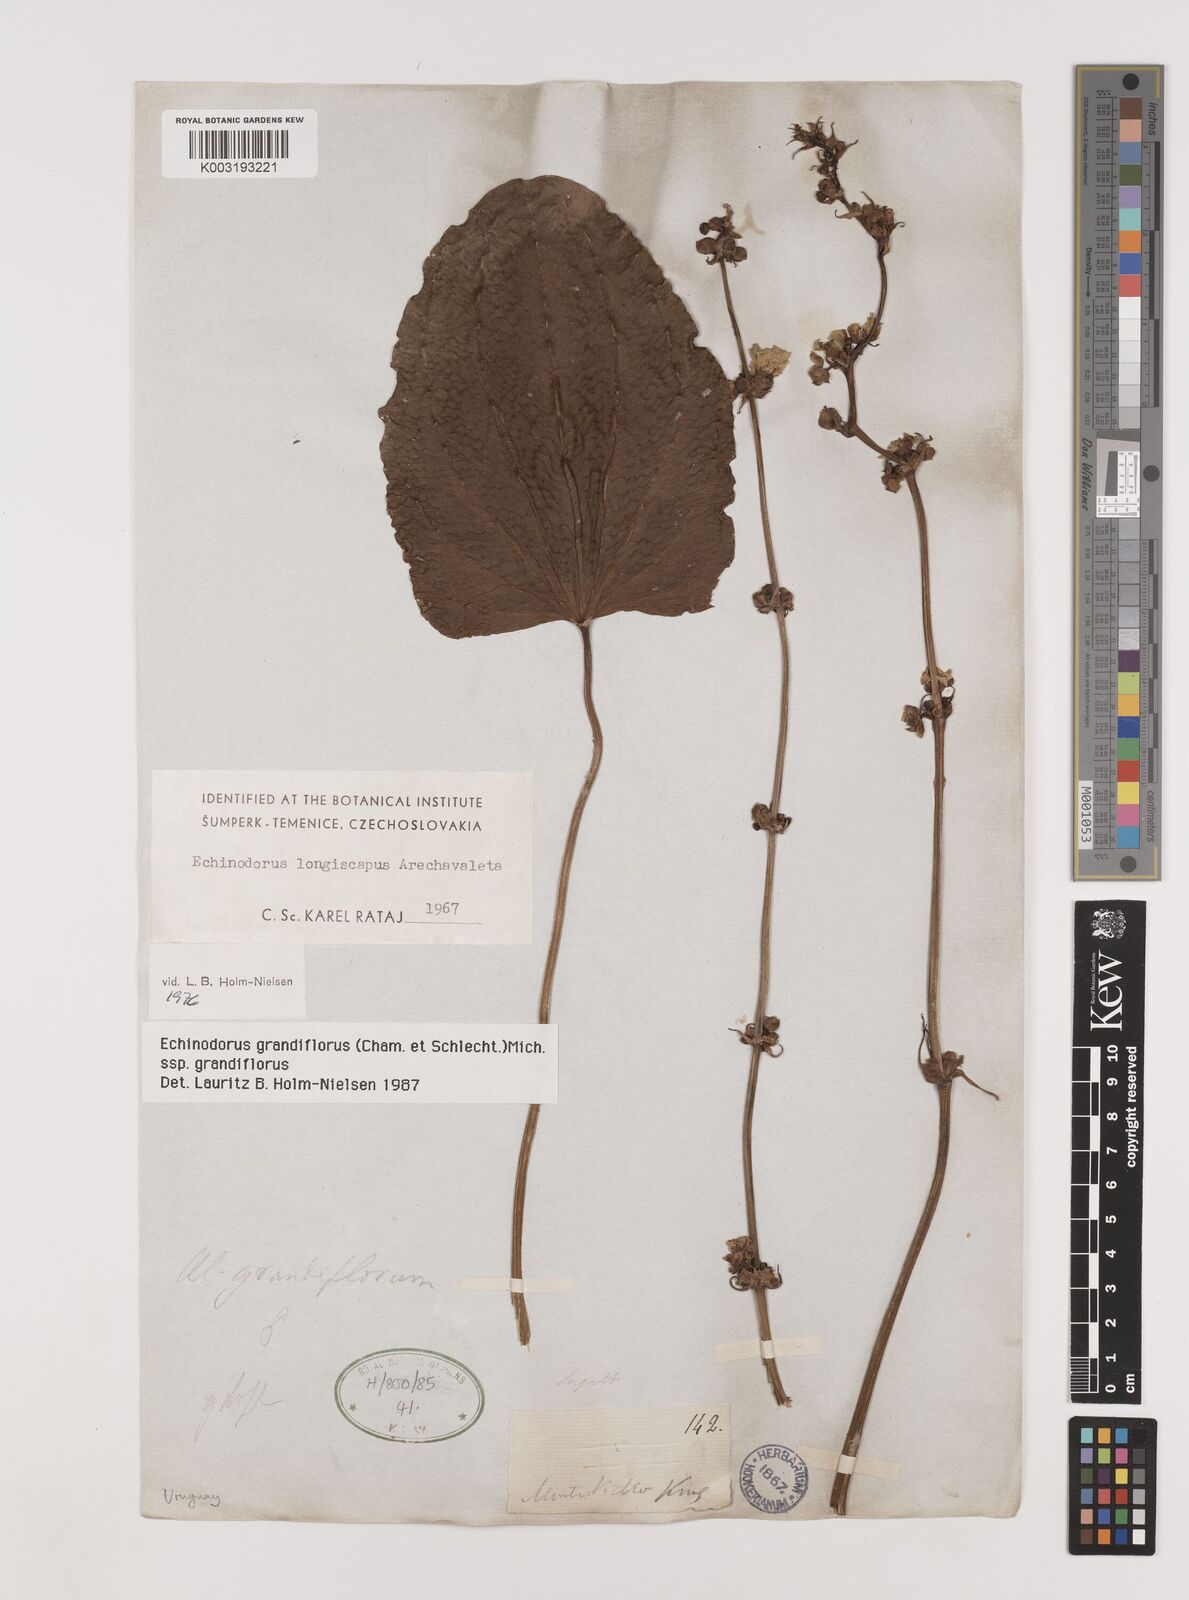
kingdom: Plantae
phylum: Tracheophyta
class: Liliopsida
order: Alismatales
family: Alismataceae
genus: Aquarius
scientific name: Aquarius grandiflorus
